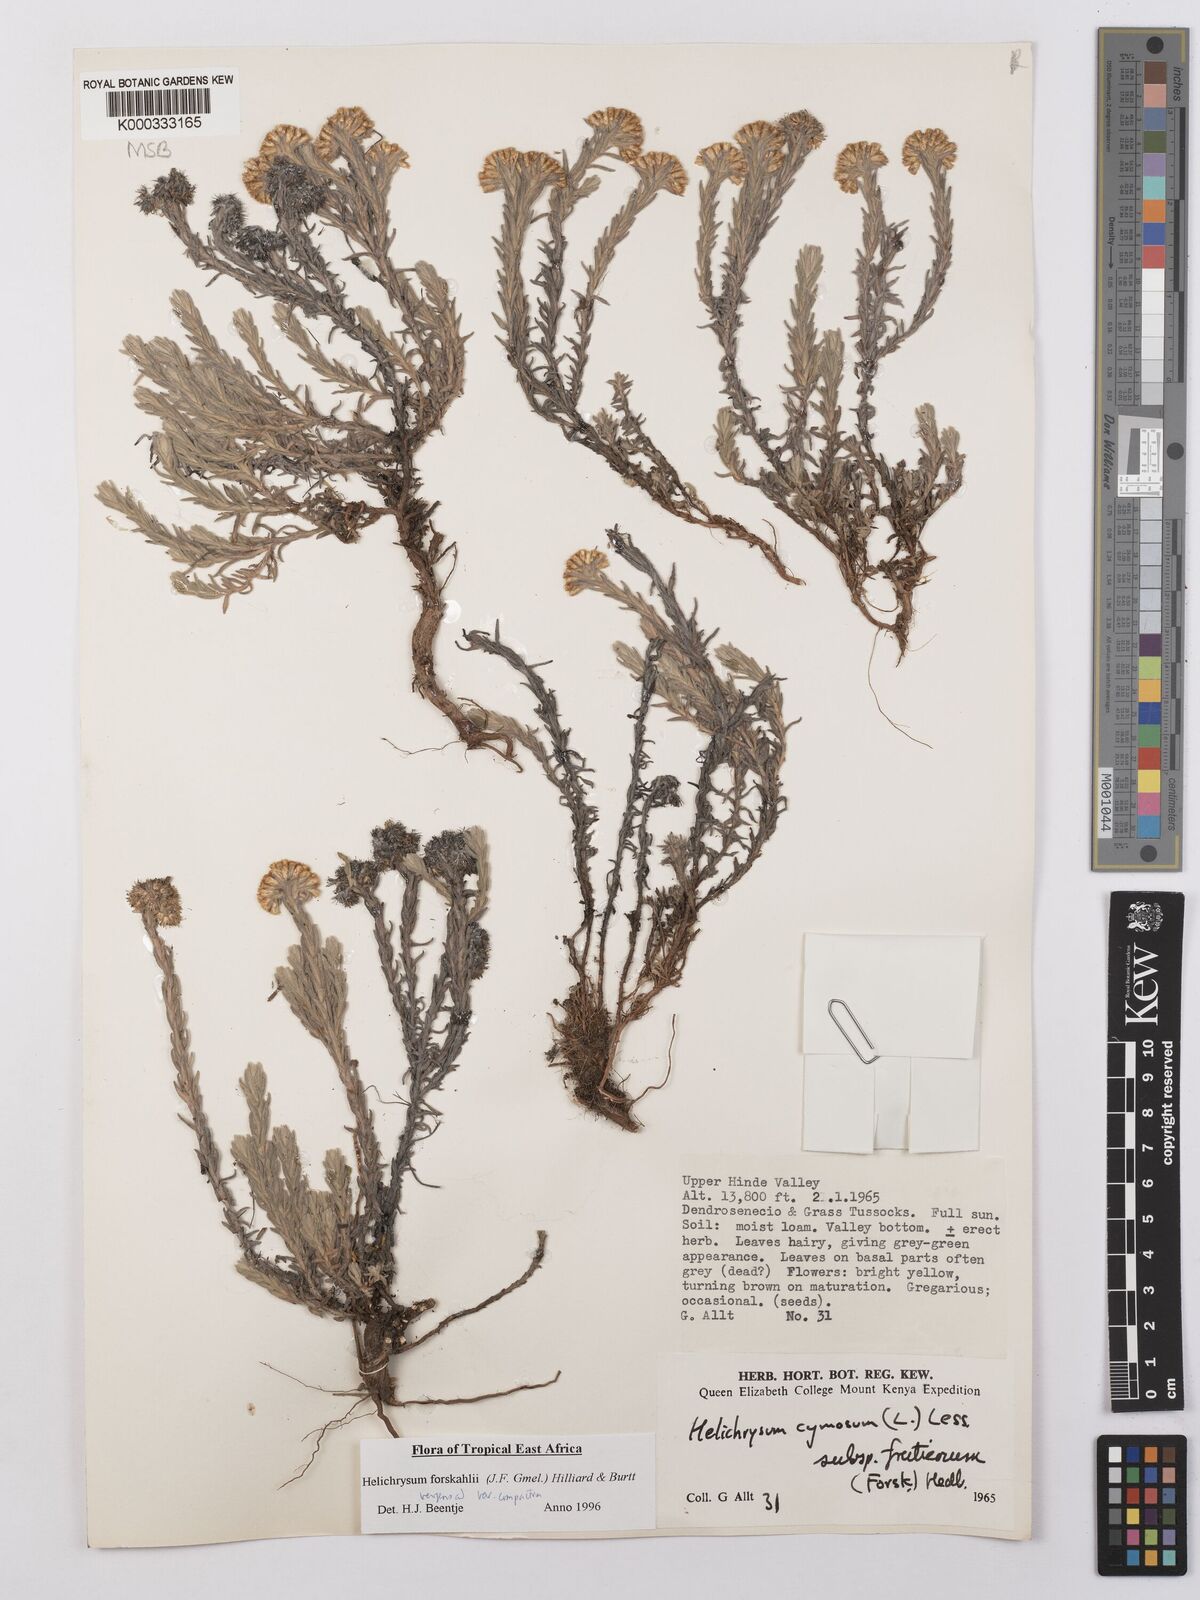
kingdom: Plantae
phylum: Tracheophyta
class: Magnoliopsida
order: Asterales
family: Asteraceae
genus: Helichrysum
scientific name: Helichrysum forskahlii
